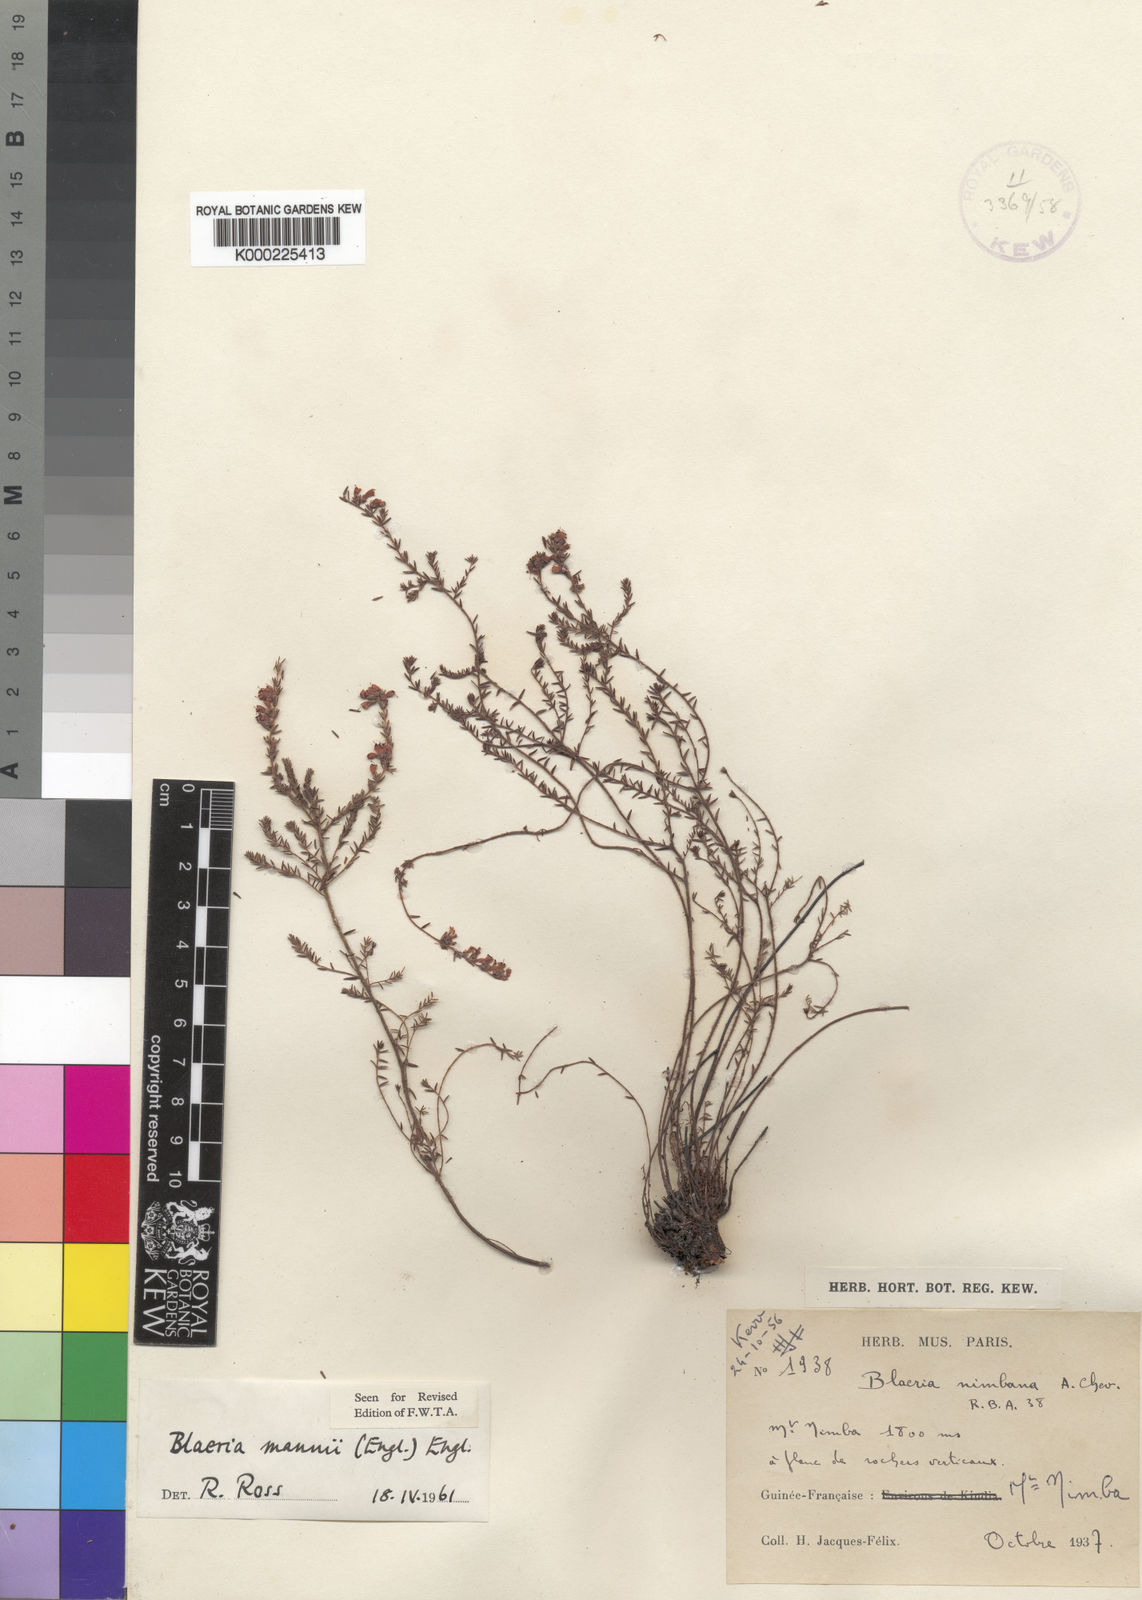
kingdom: Plantae
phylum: Tracheophyta
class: Magnoliopsida
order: Ericales
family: Ericaceae
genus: Erica
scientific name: Erica silvatica
